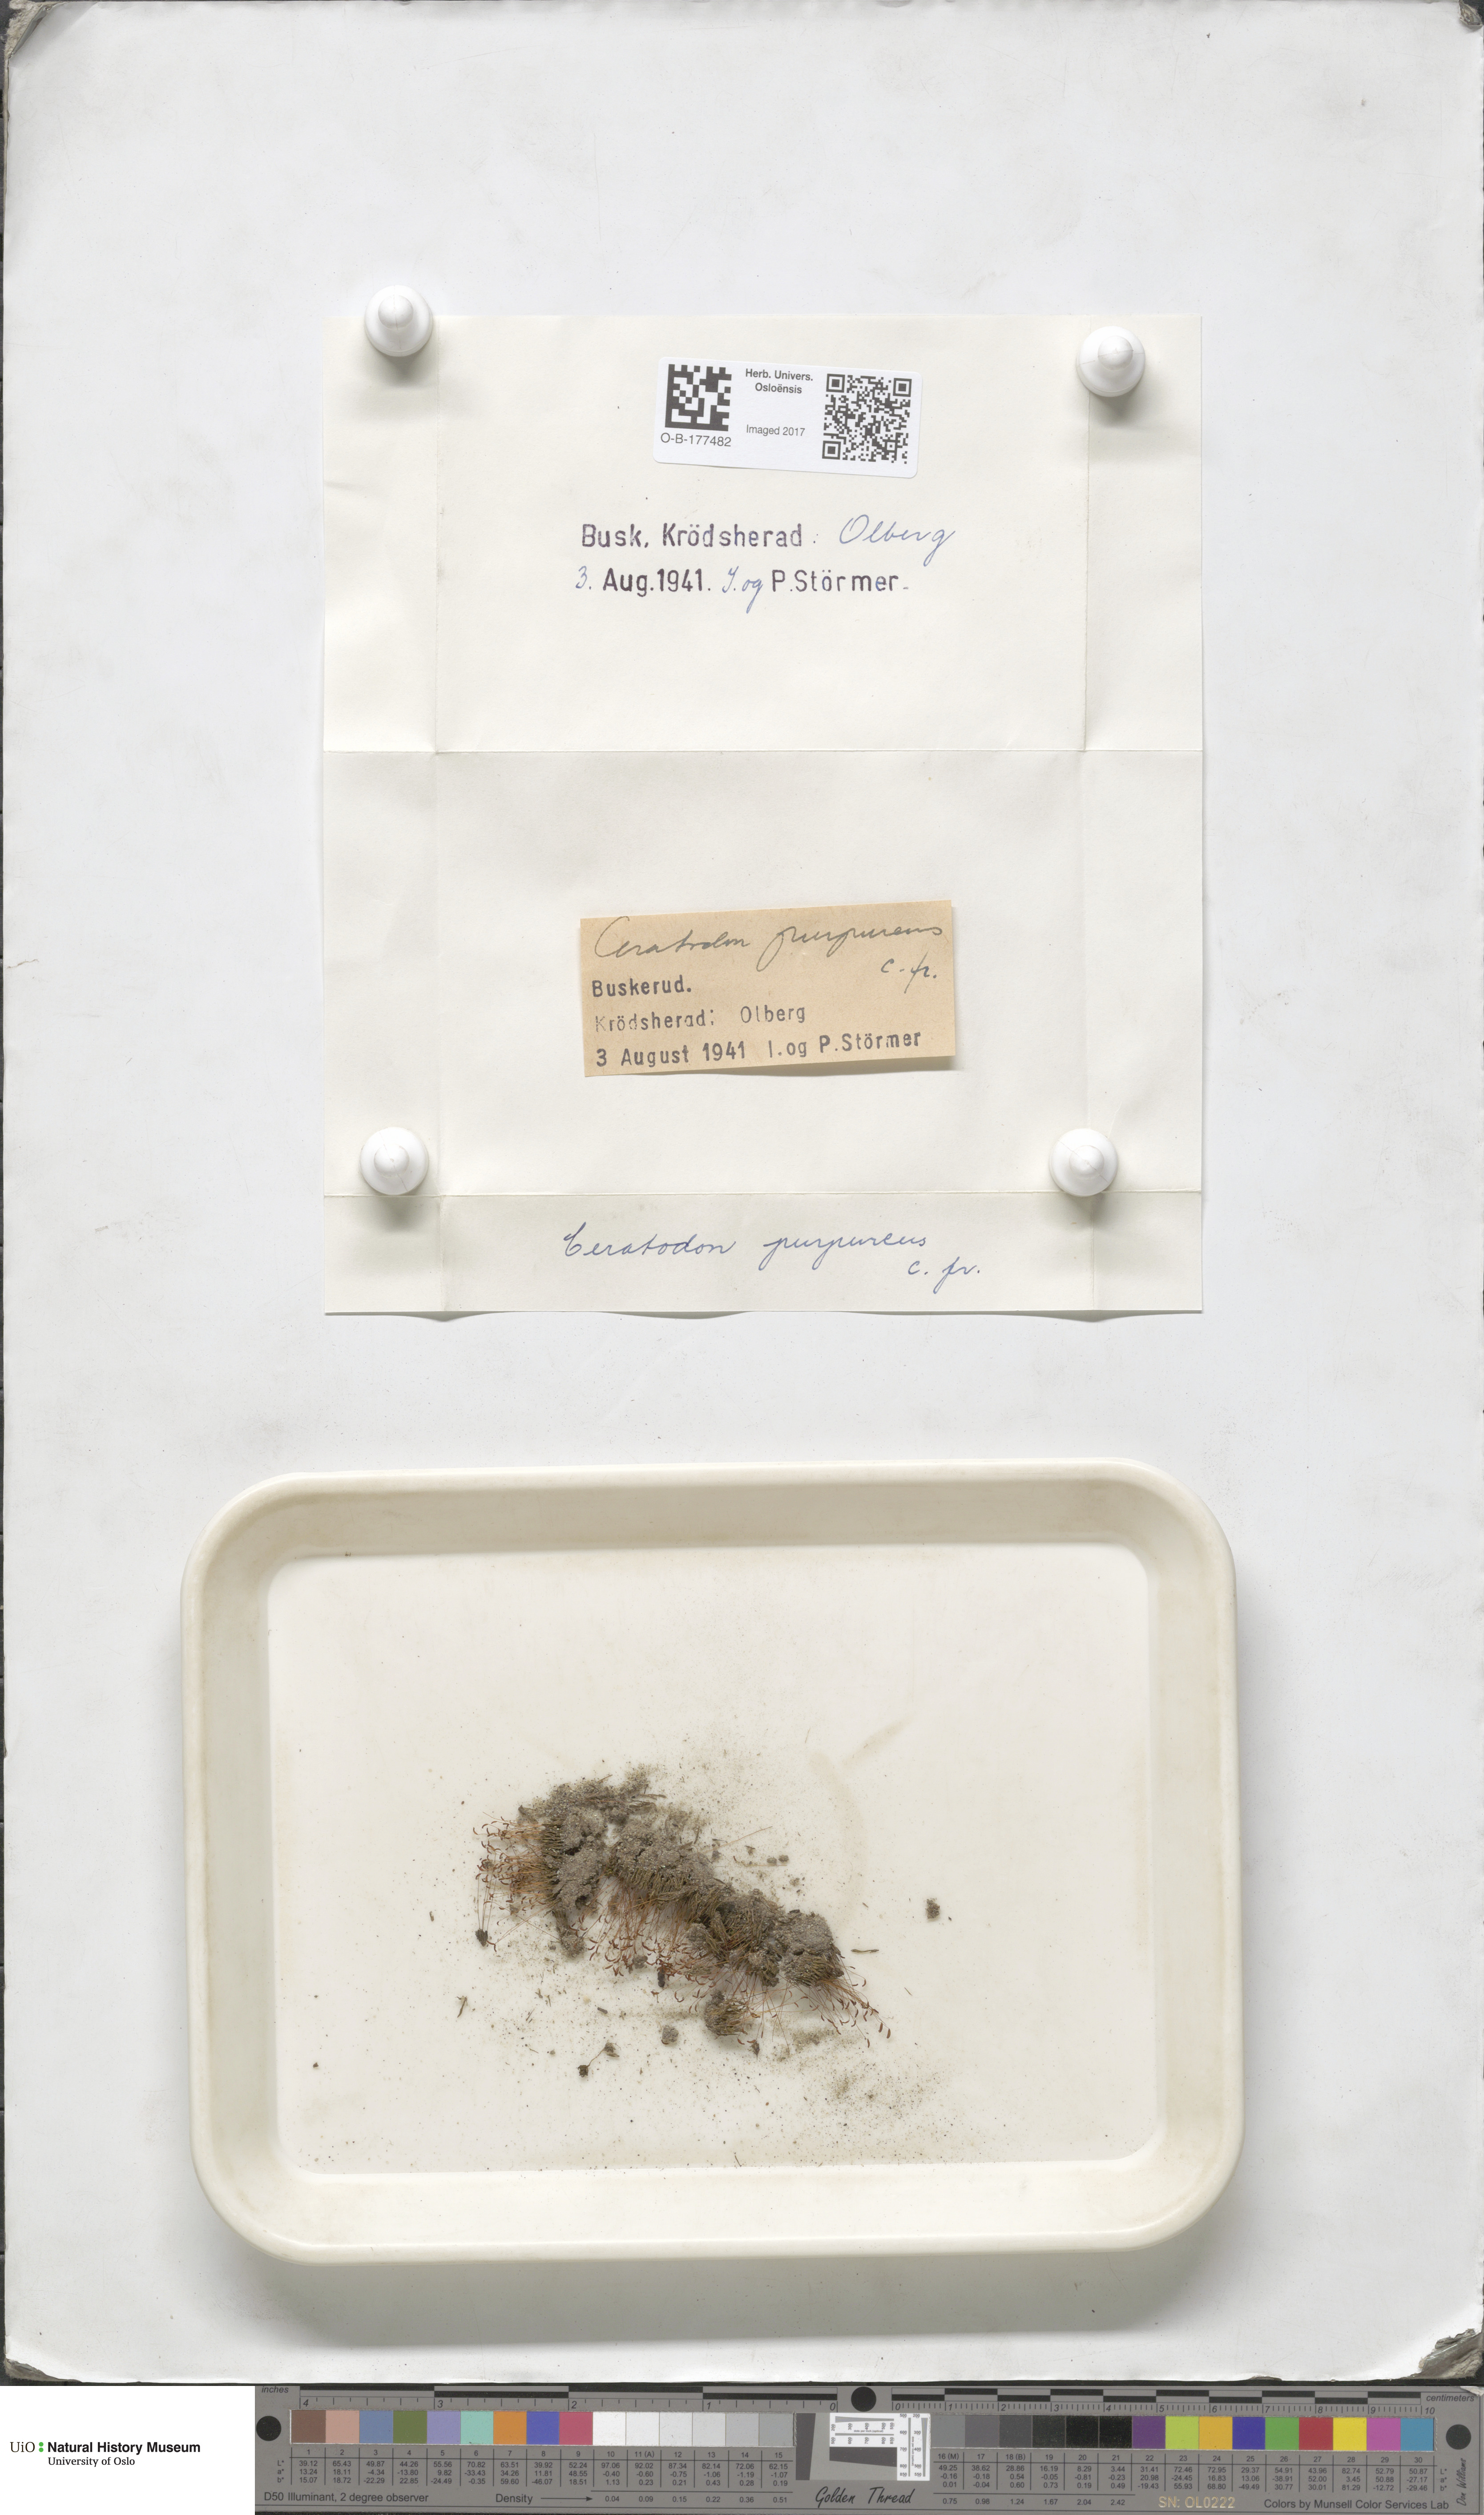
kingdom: Plantae
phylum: Bryophyta
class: Bryopsida
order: Dicranales
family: Ditrichaceae
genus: Ceratodon
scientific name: Ceratodon purpureus
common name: Redshank
